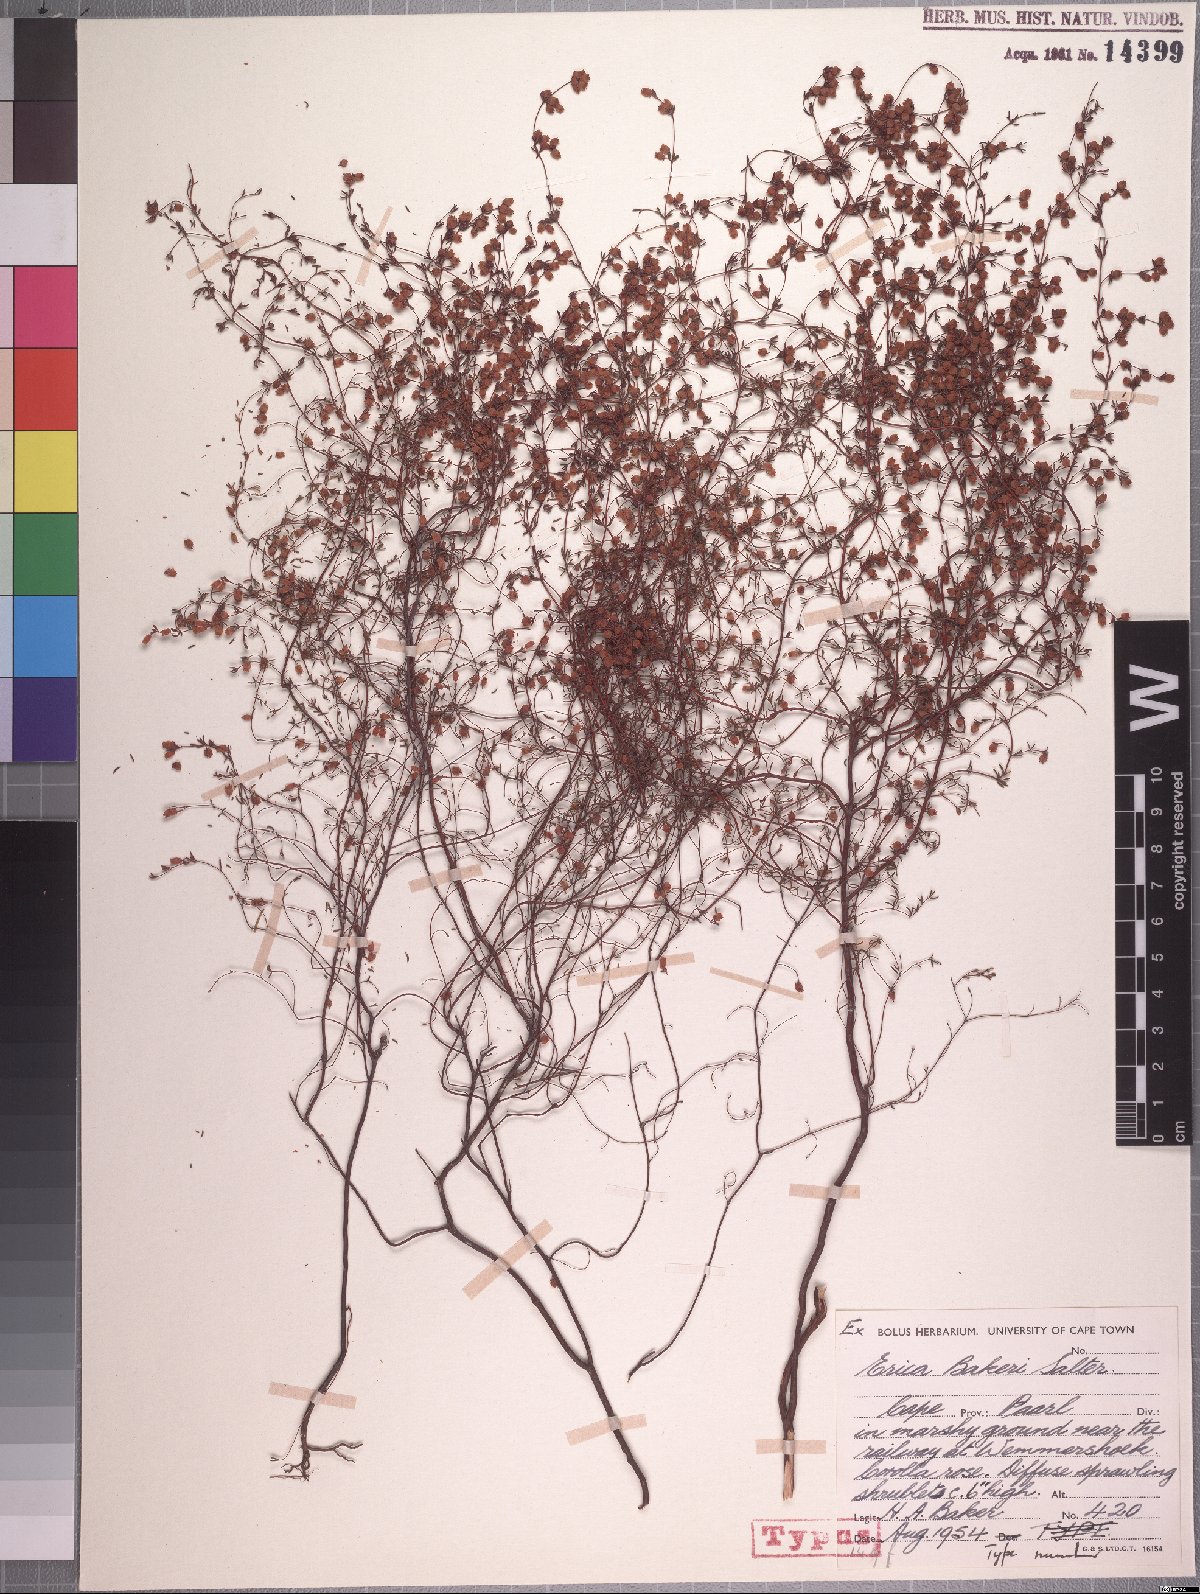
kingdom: Plantae
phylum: Tracheophyta
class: Magnoliopsida
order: Ericales
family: Ericaceae
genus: Erica
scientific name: Erica bakeri
